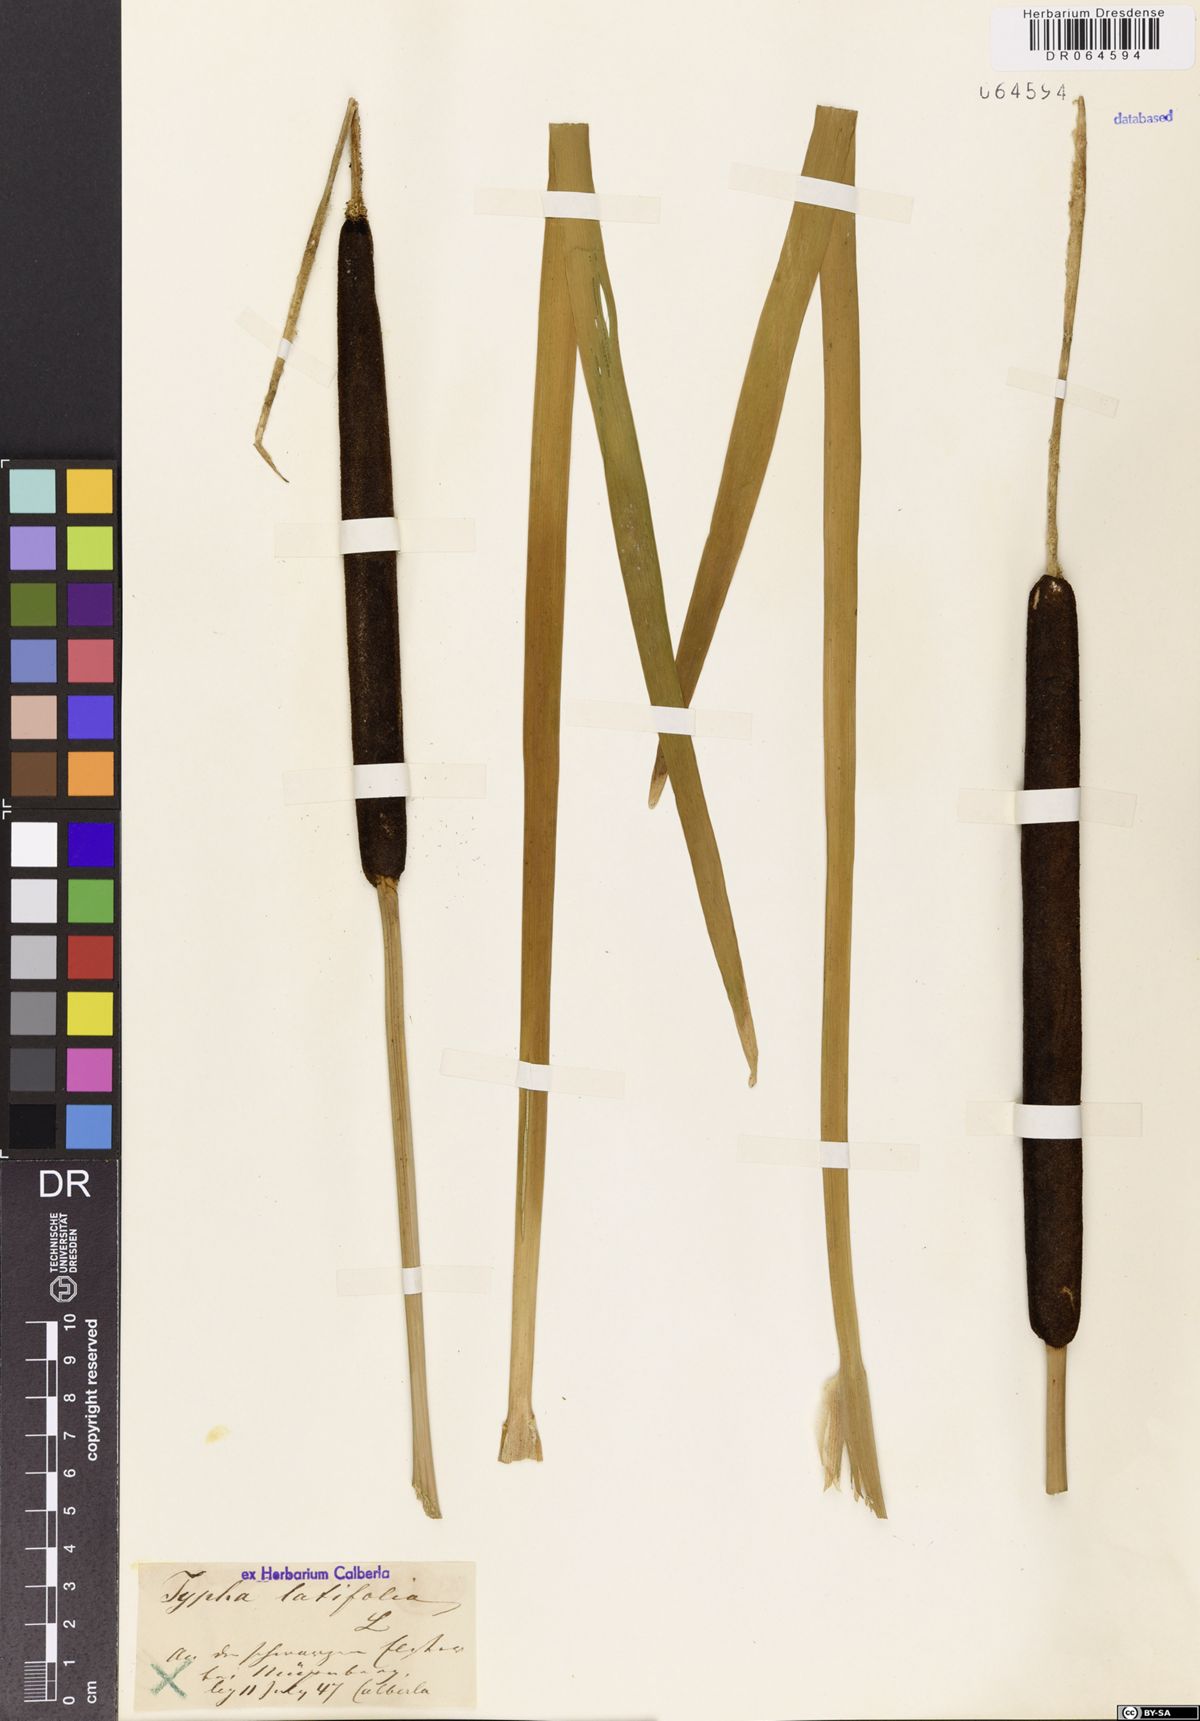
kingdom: Plantae
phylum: Tracheophyta
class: Liliopsida
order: Poales
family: Typhaceae
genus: Typha
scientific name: Typha latifolia
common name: Broadleaf cattail
